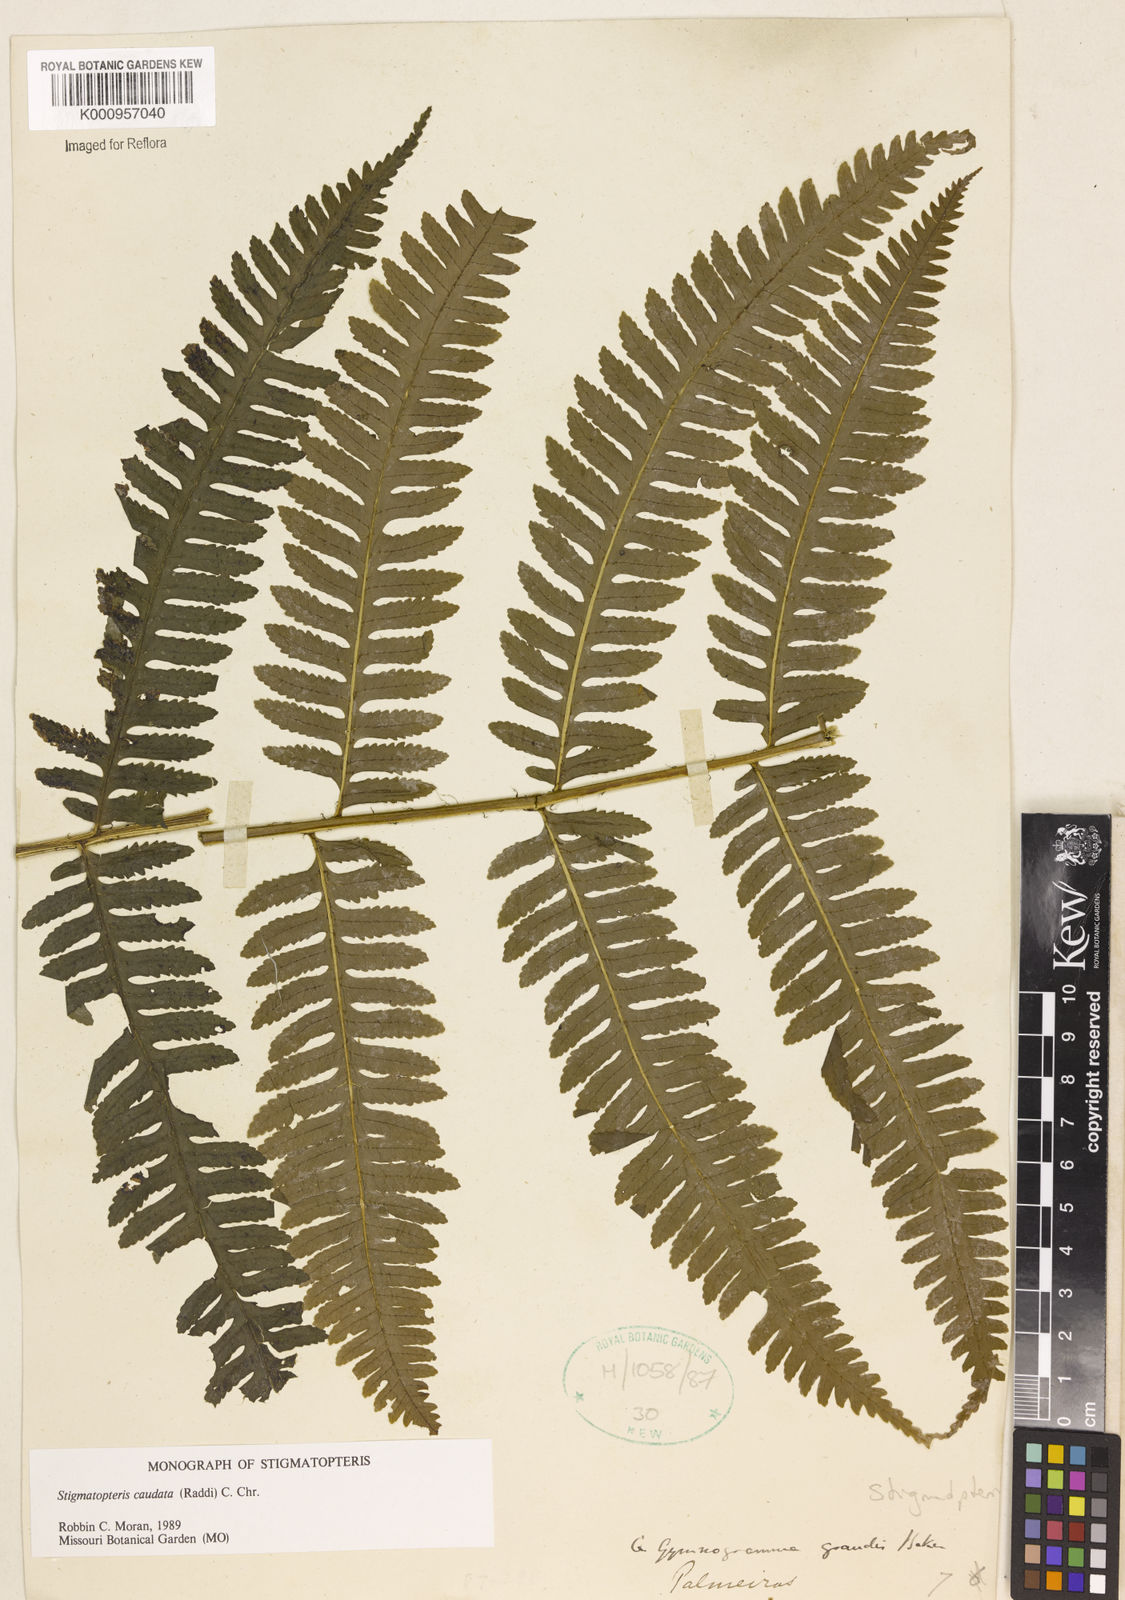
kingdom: Plantae
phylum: Tracheophyta
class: Polypodiopsida
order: Polypodiales
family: Dryopteridaceae
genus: Stigmatopteris
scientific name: Stigmatopteris caudata
